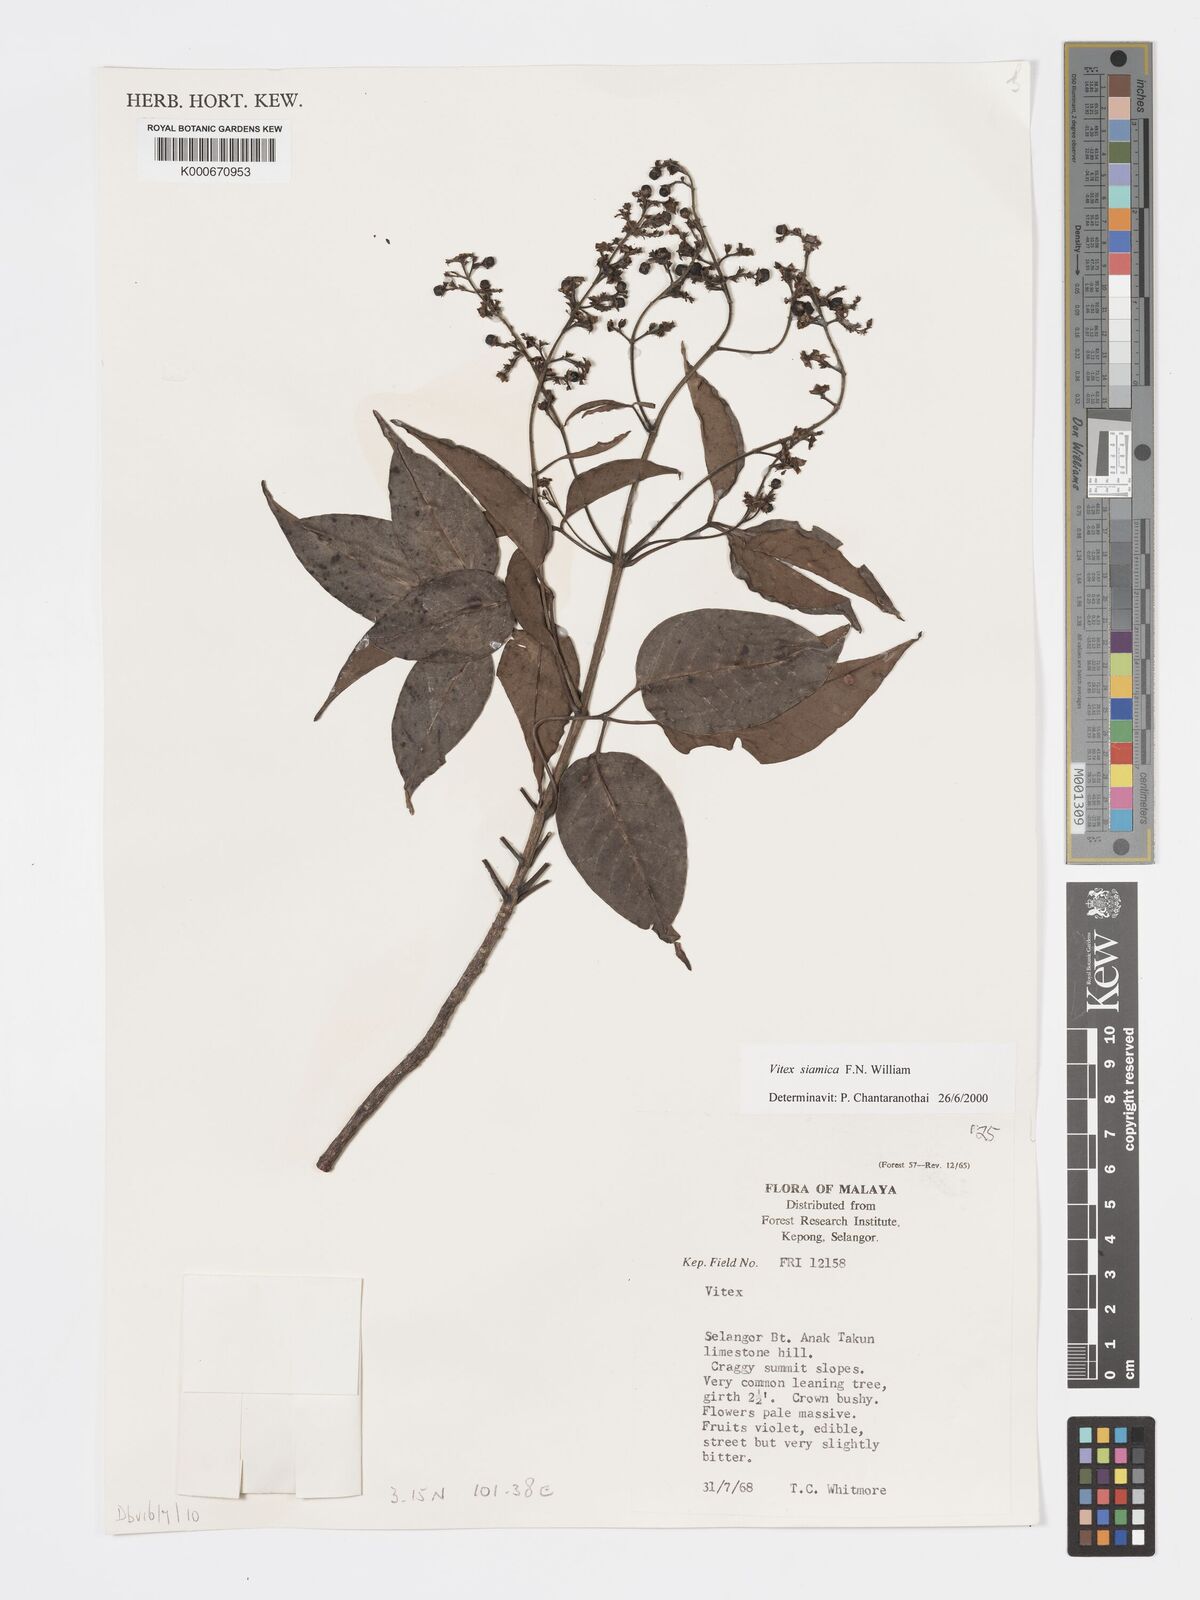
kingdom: Plantae
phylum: Tracheophyta
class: Magnoliopsida
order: Lamiales
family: Lamiaceae
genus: Vitex
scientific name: Vitex siamica
